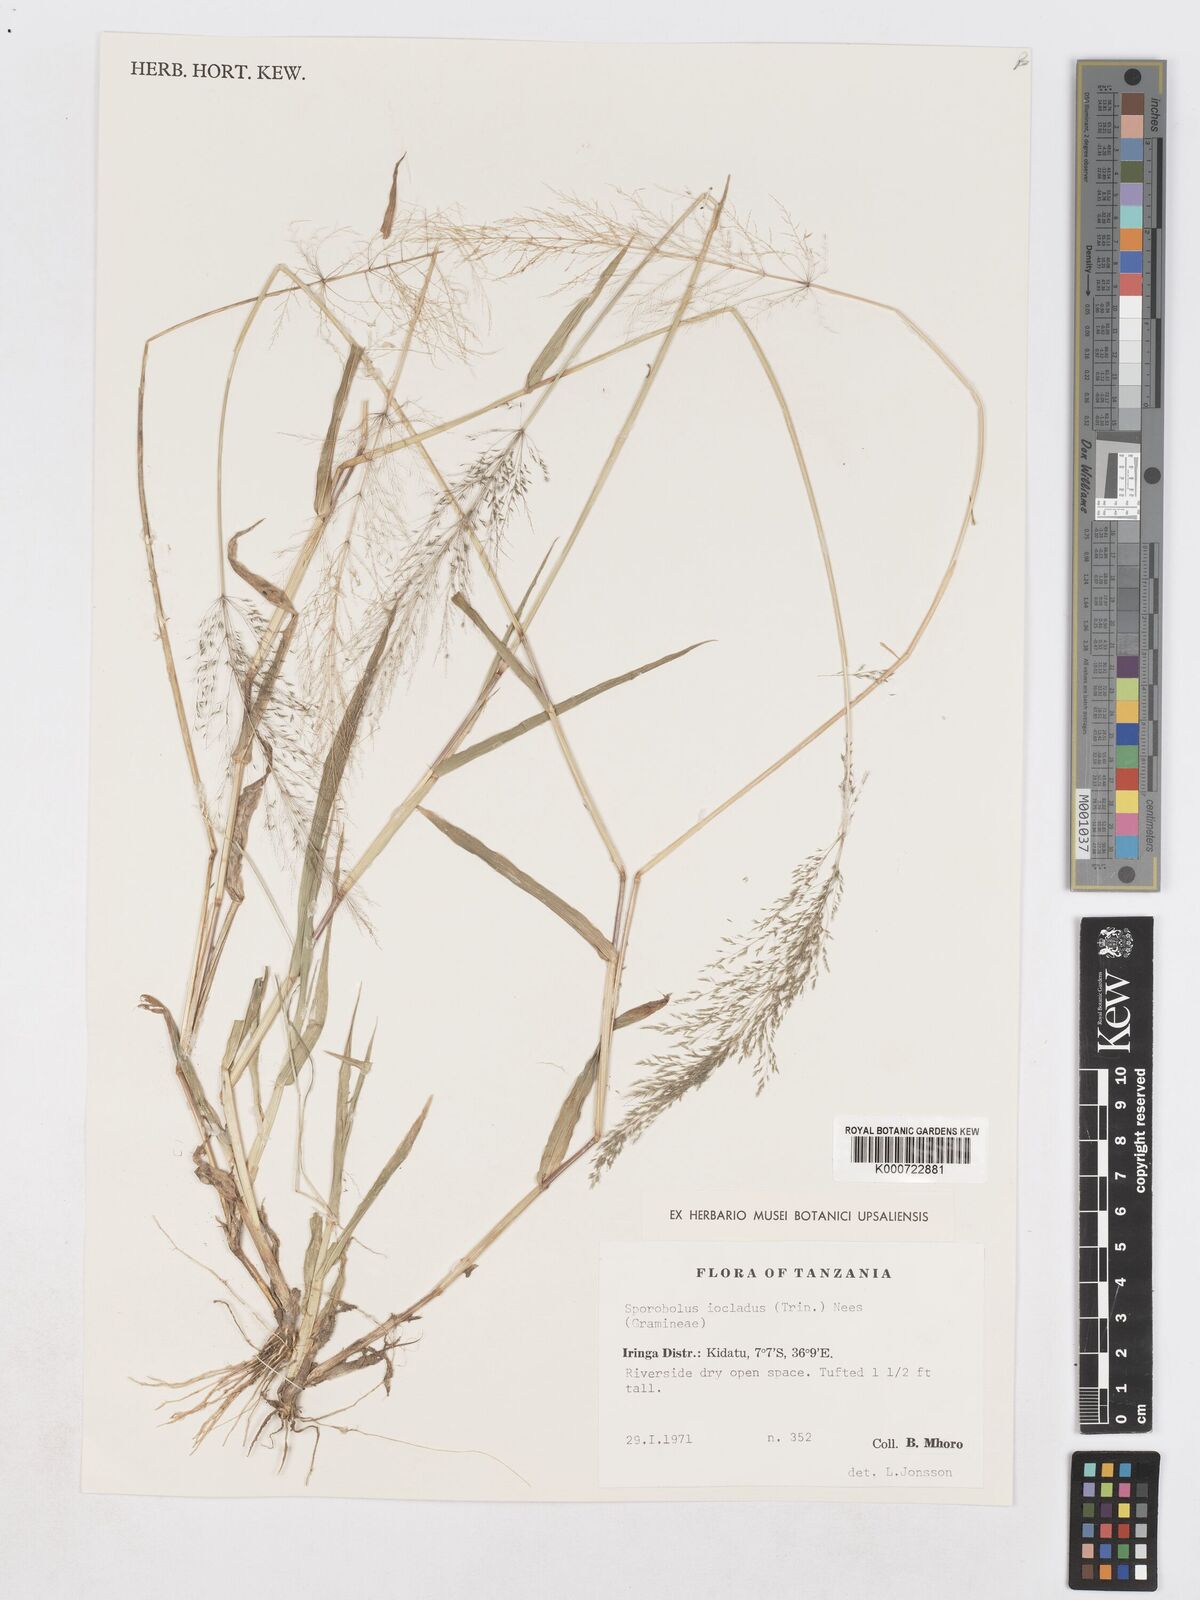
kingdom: Plantae
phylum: Tracheophyta
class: Liliopsida
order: Poales
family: Poaceae
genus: Sporobolus
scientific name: Sporobolus ioclados
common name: Pan dropseed
